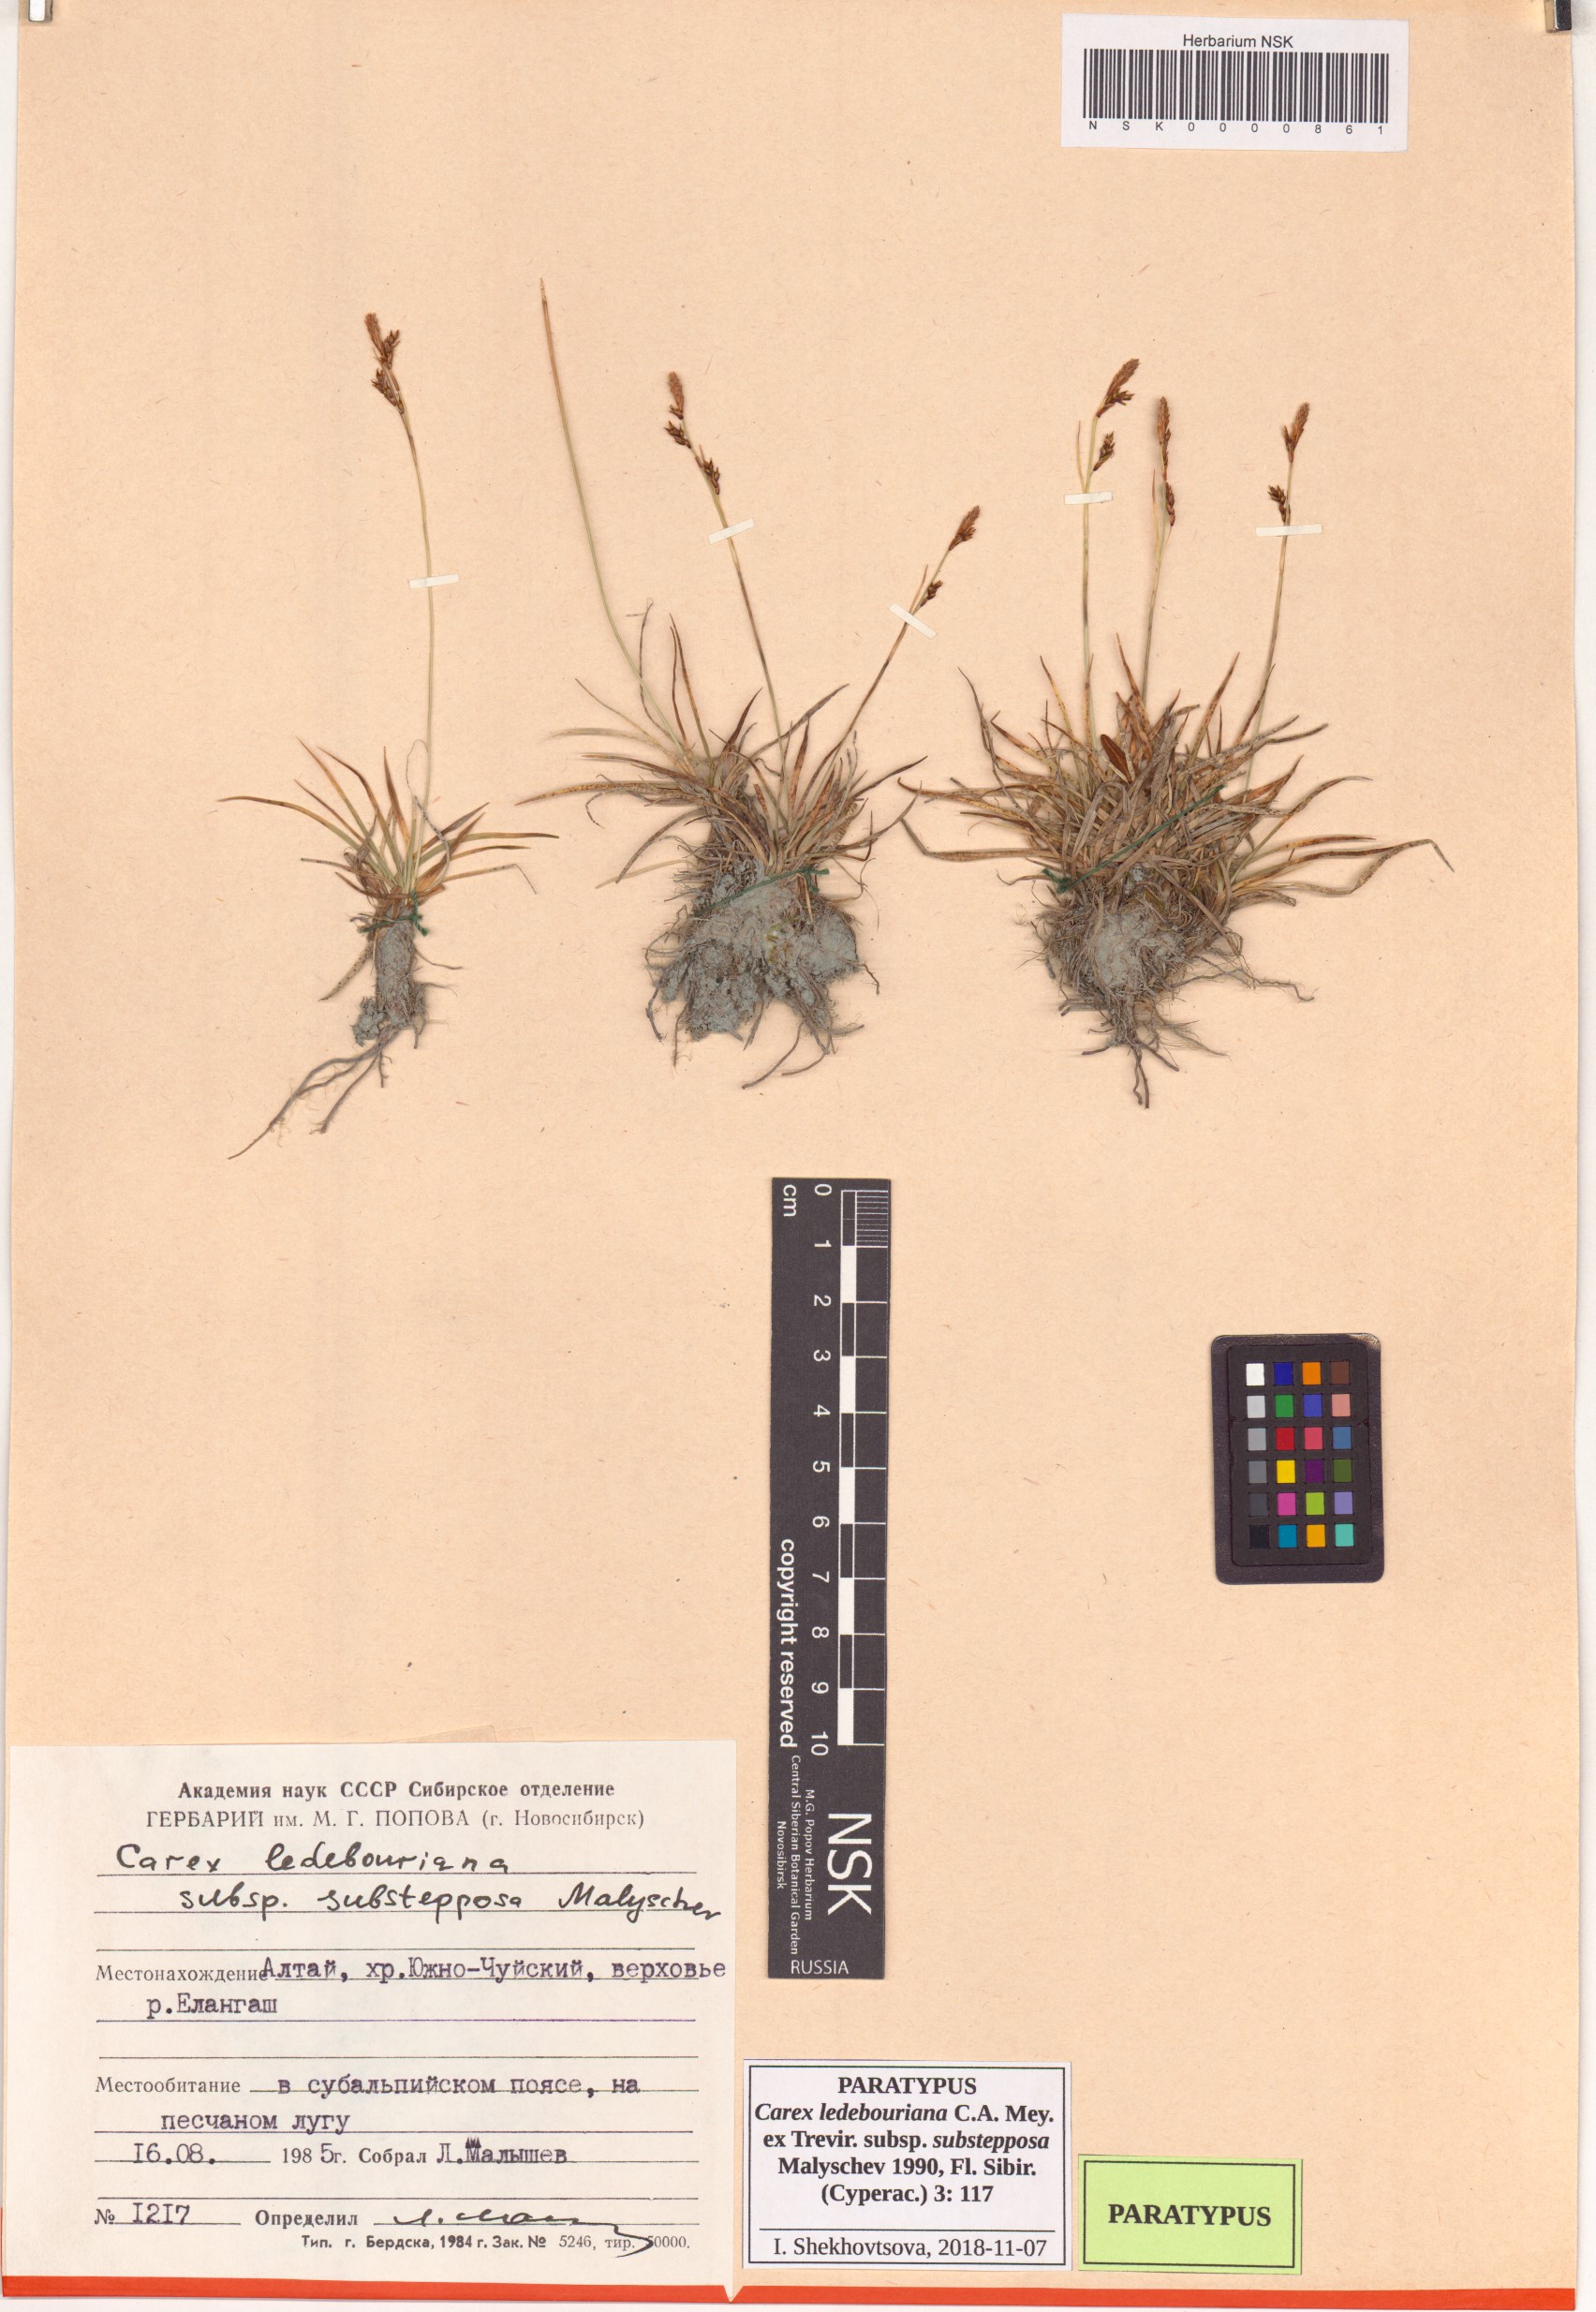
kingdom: Plantae
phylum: Tracheophyta
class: Liliopsida
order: Poales
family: Cyperaceae
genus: Carex
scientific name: Carex ledebouriana
